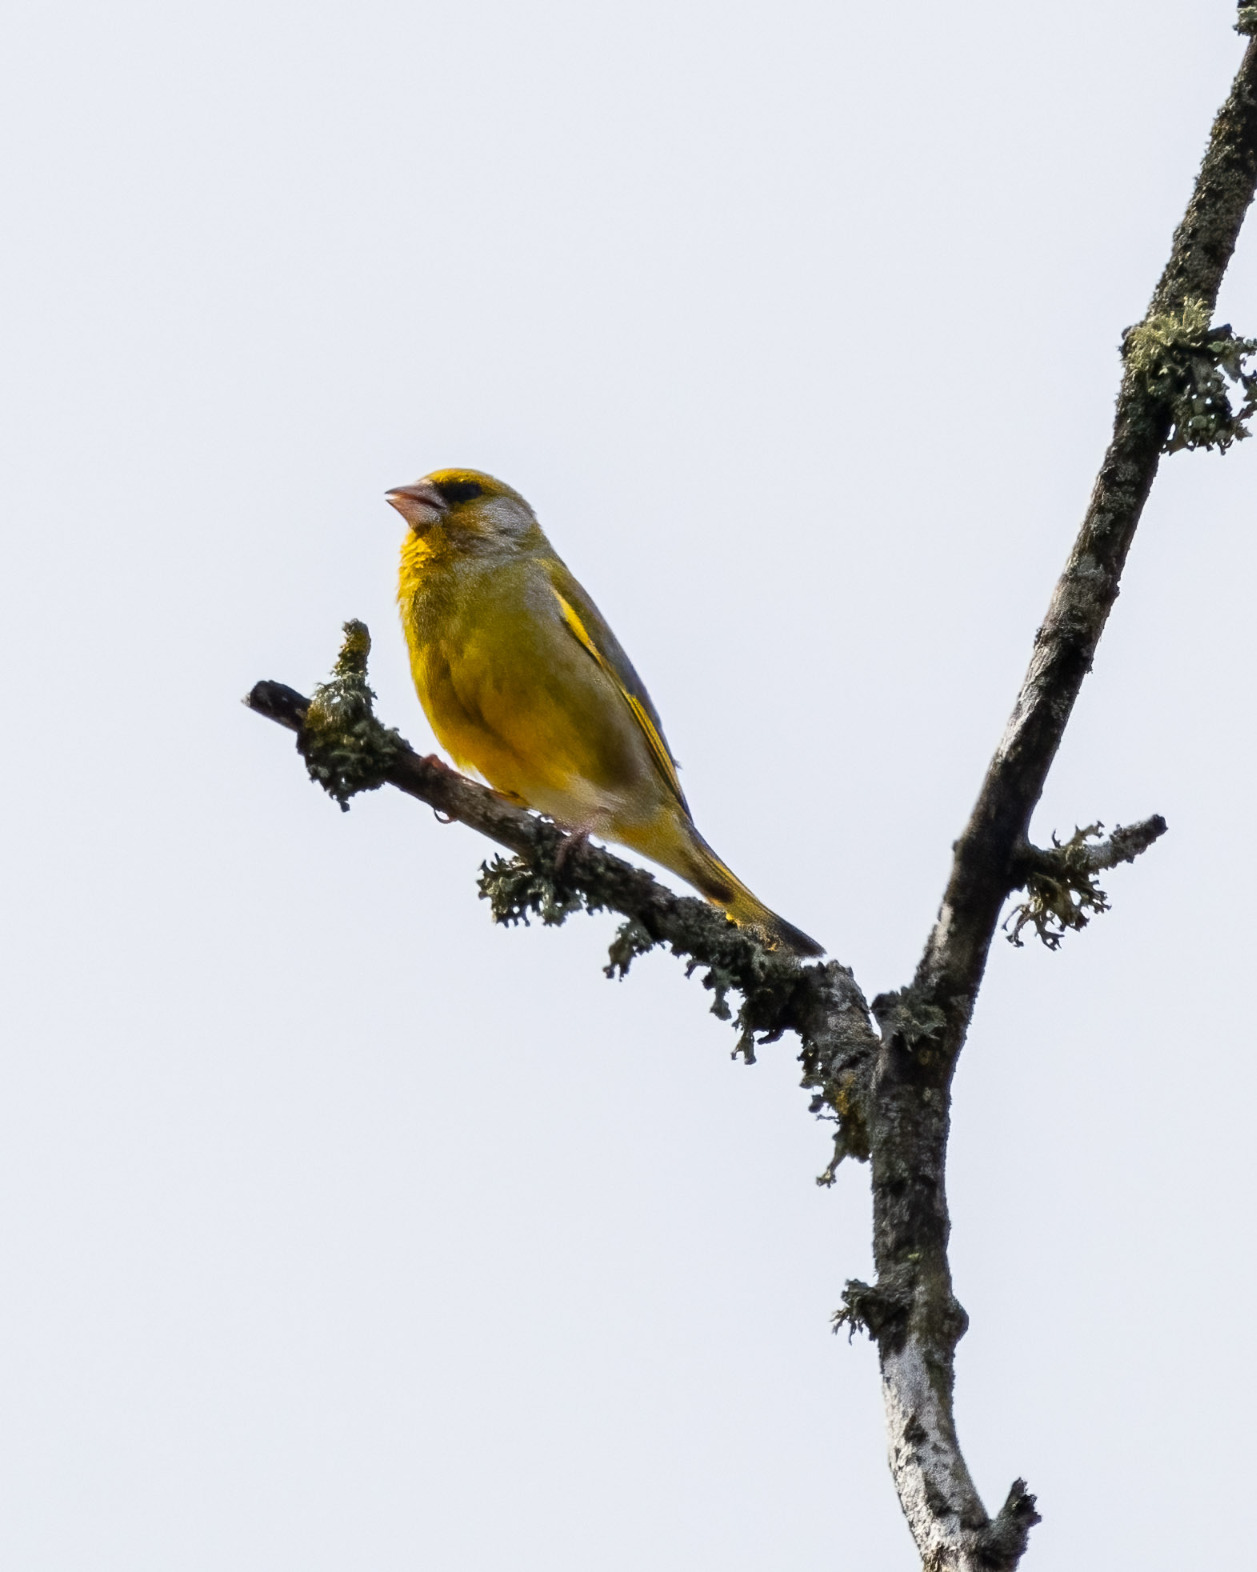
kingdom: Plantae
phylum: Tracheophyta
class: Liliopsida
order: Poales
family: Poaceae
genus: Chloris
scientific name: Chloris chloris
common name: Grønirisk
